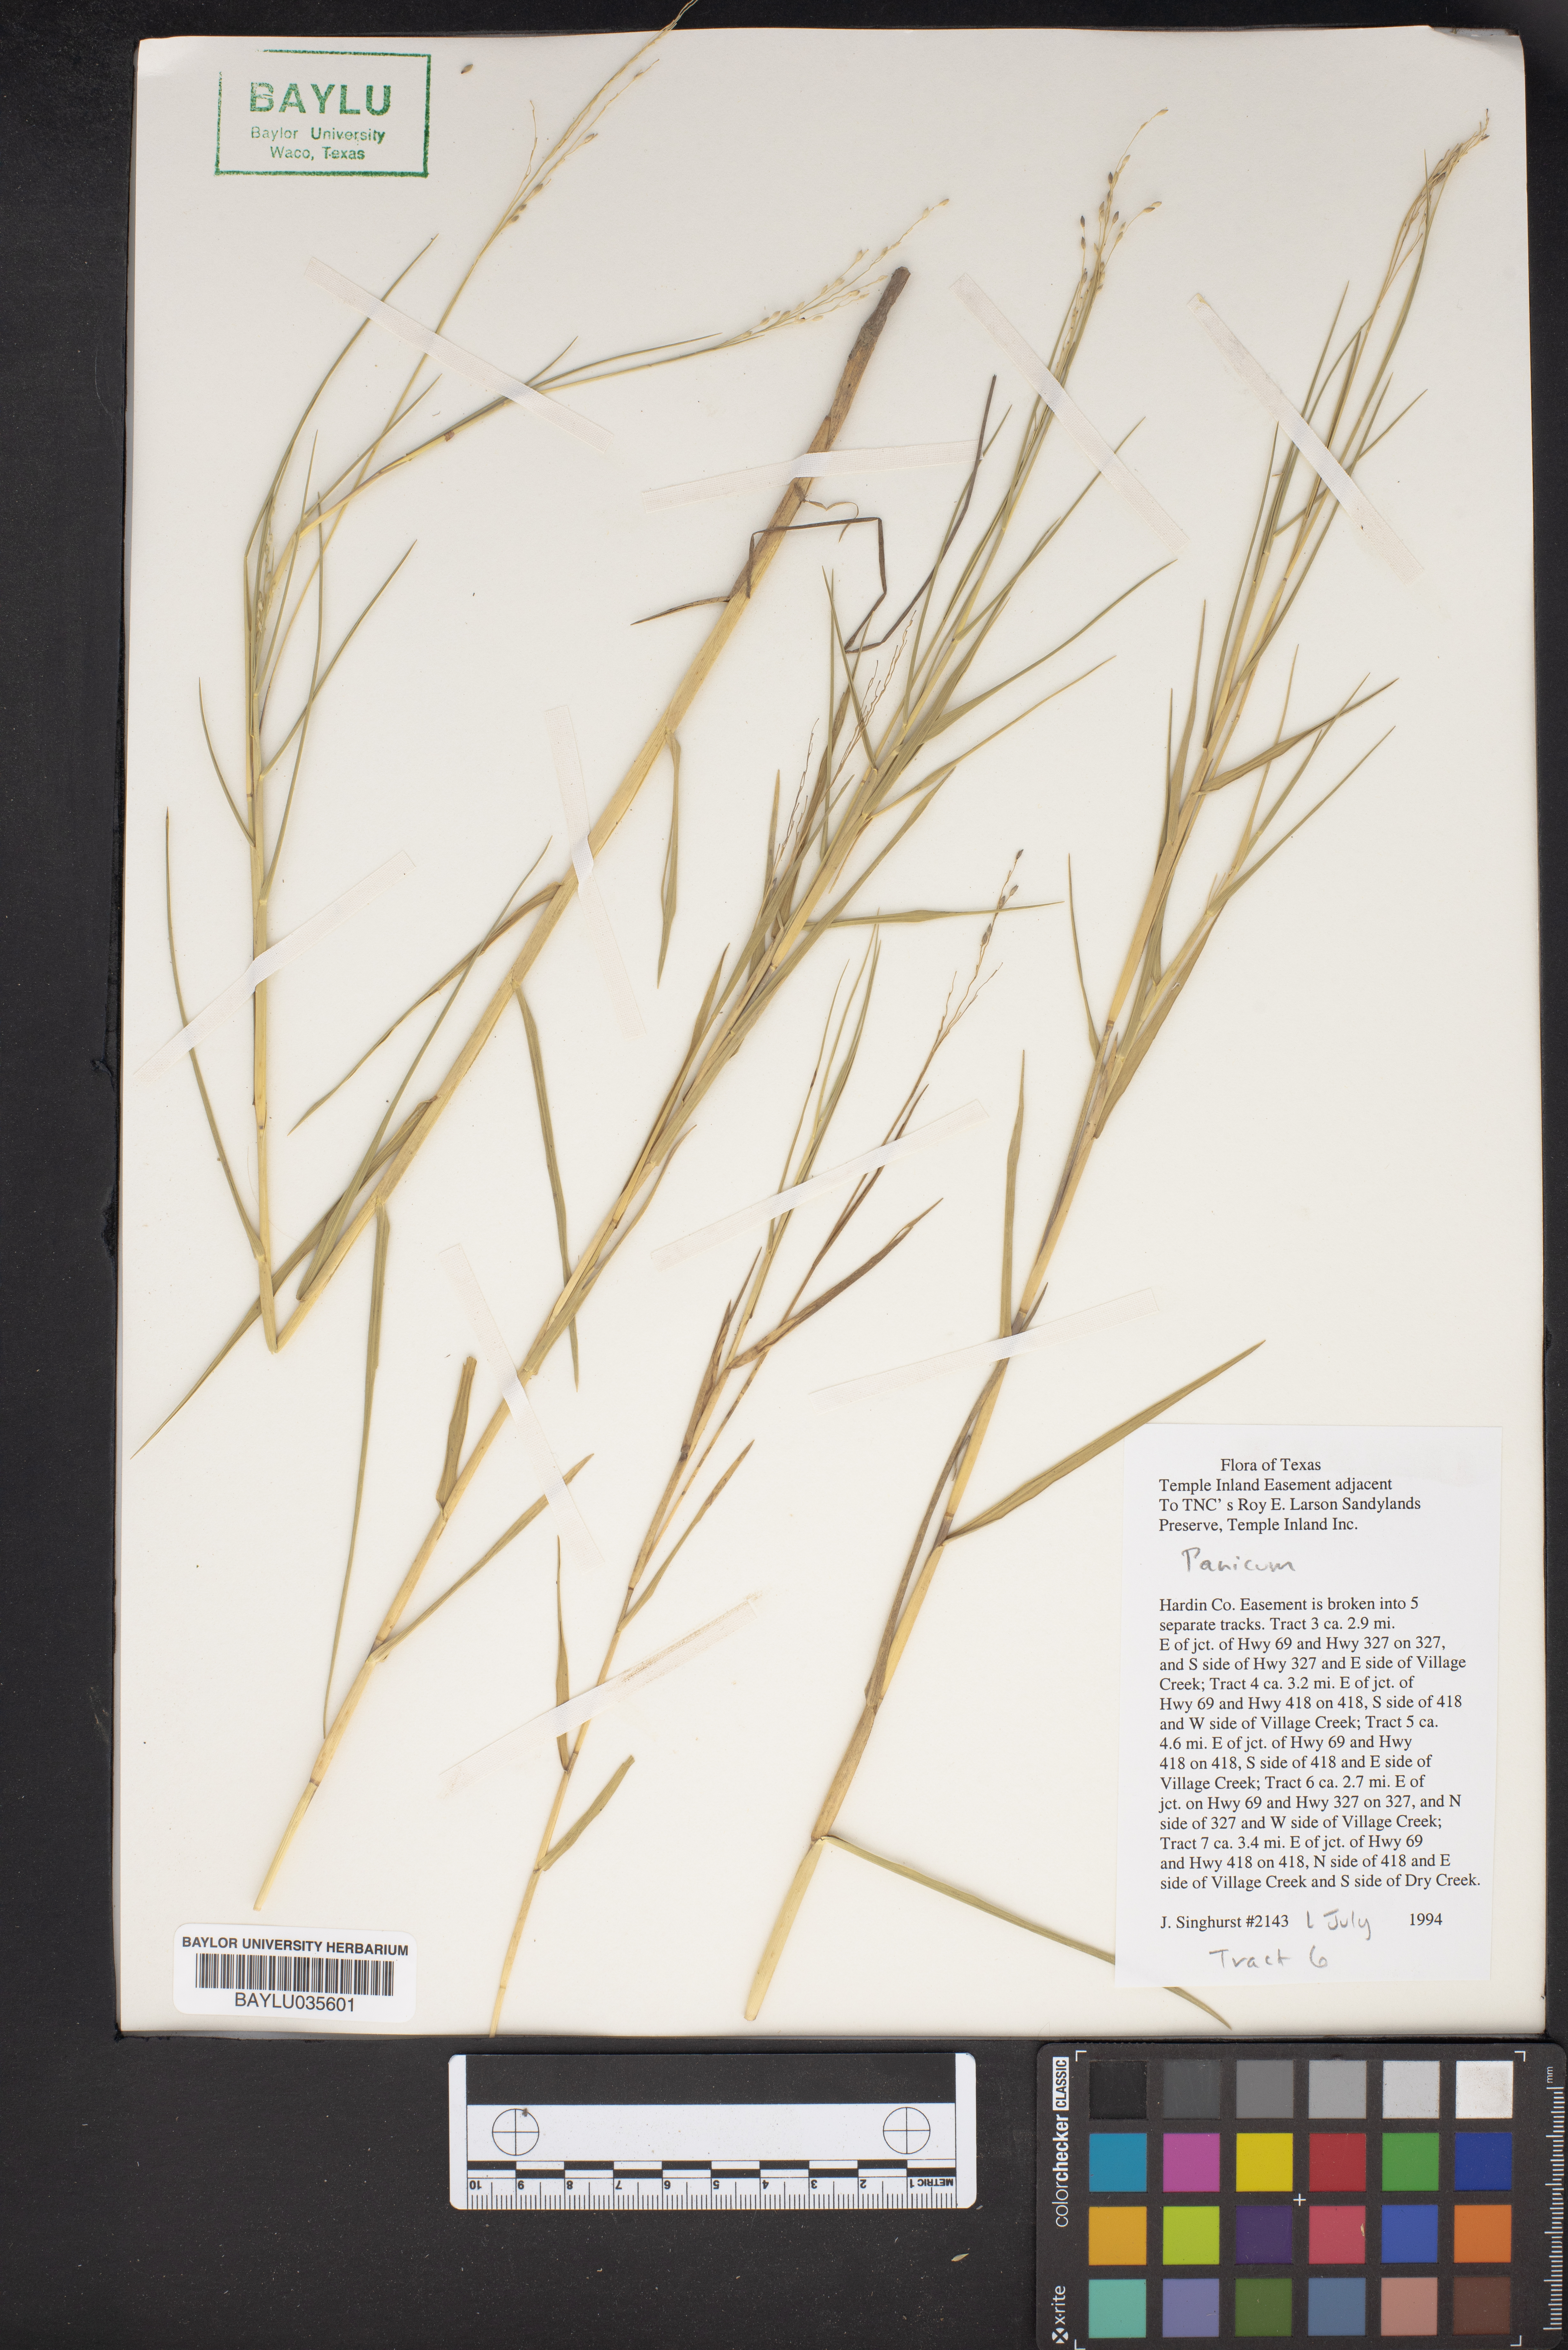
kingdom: Plantae
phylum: Tracheophyta
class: Liliopsida
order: Poales
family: Poaceae
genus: Panicum
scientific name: Panicum
